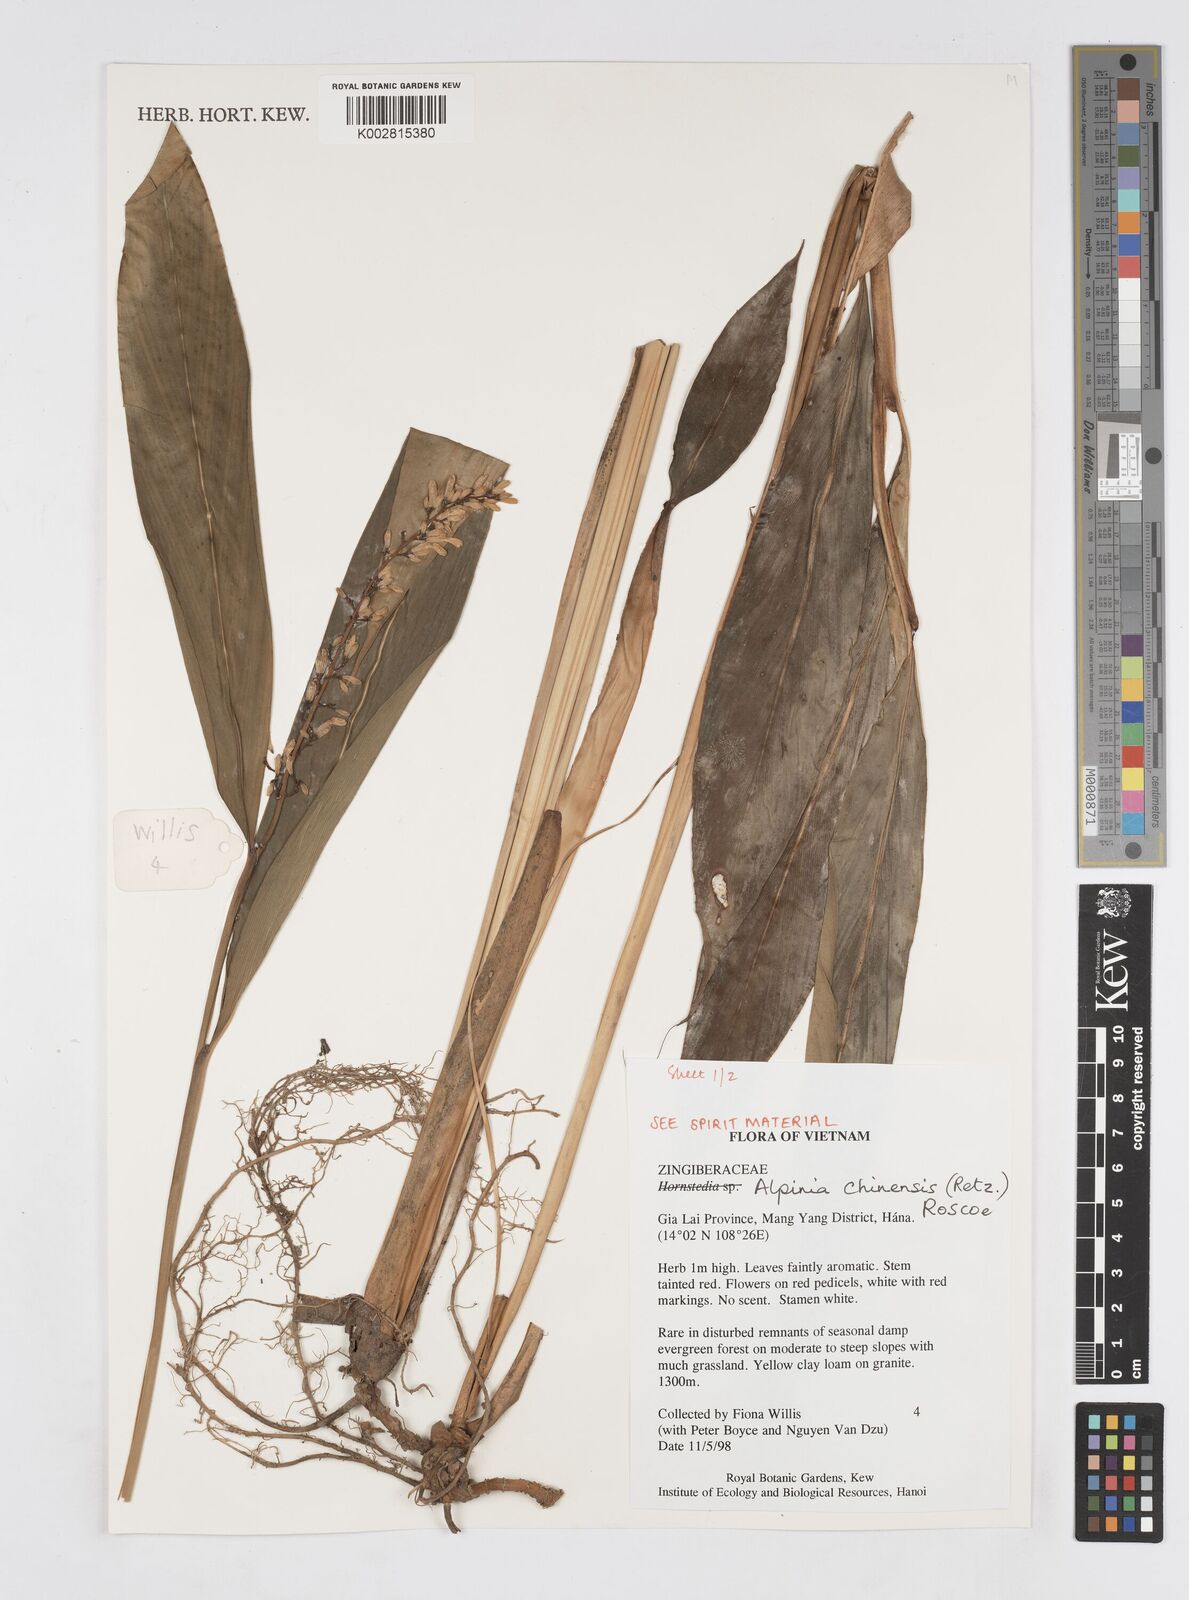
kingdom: Plantae
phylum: Tracheophyta
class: Liliopsida
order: Zingiberales
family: Zingiberaceae
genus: Alpinia
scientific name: Alpinia chinensis
